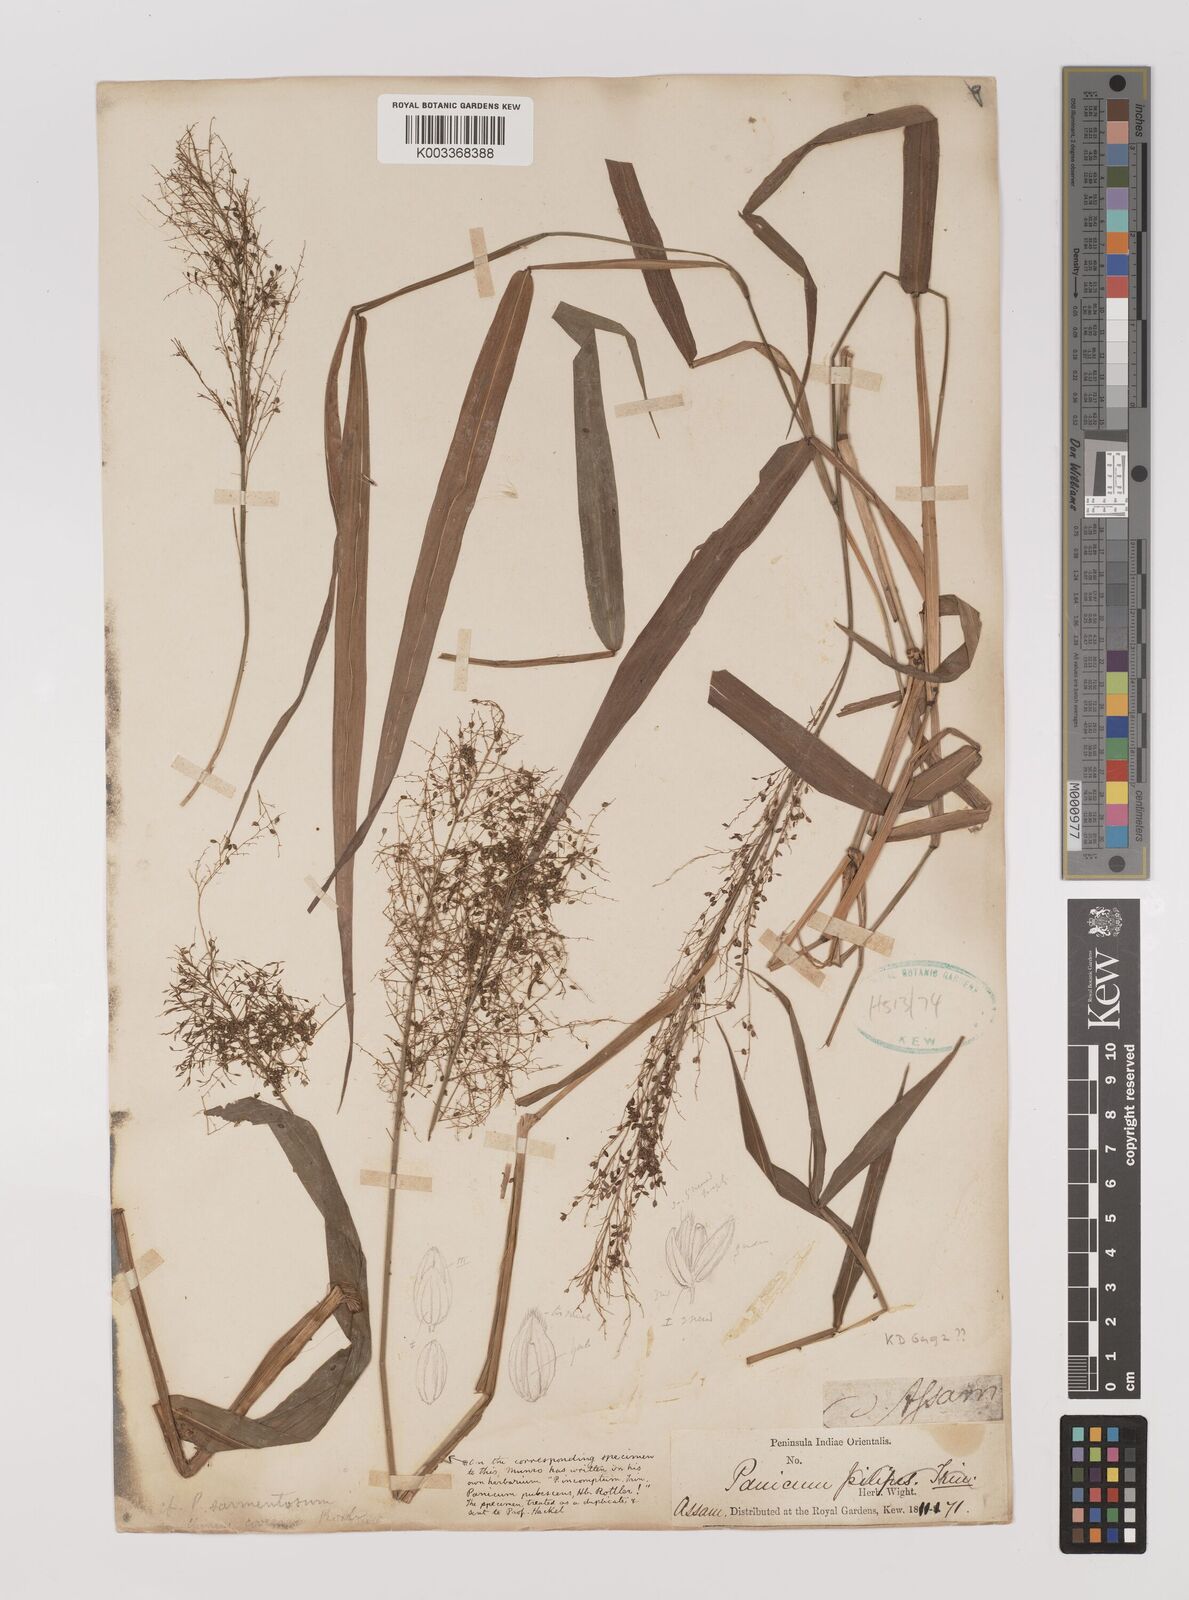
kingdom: Plantae
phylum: Tracheophyta
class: Liliopsida
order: Poales
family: Poaceae
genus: Panicum
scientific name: Panicum incomtum
